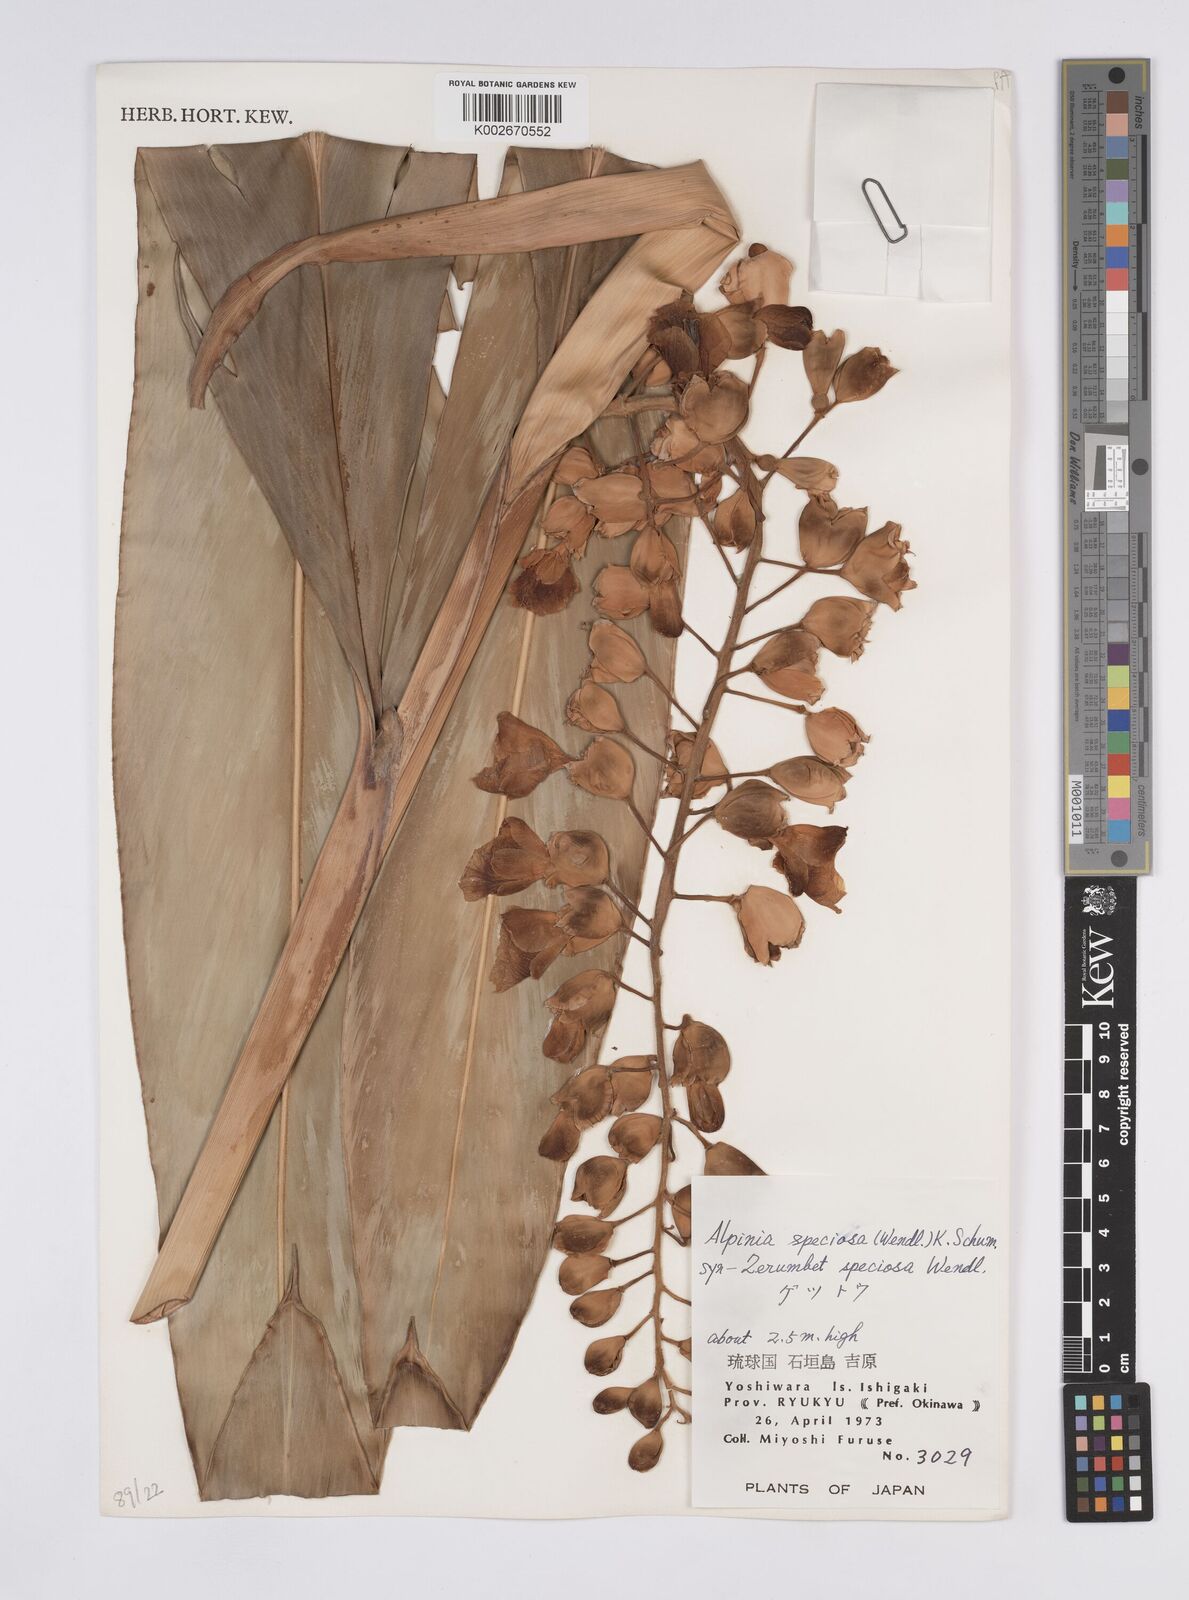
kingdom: Plantae
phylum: Tracheophyta
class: Liliopsida
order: Zingiberales
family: Zingiberaceae
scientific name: Zingiberaceae
